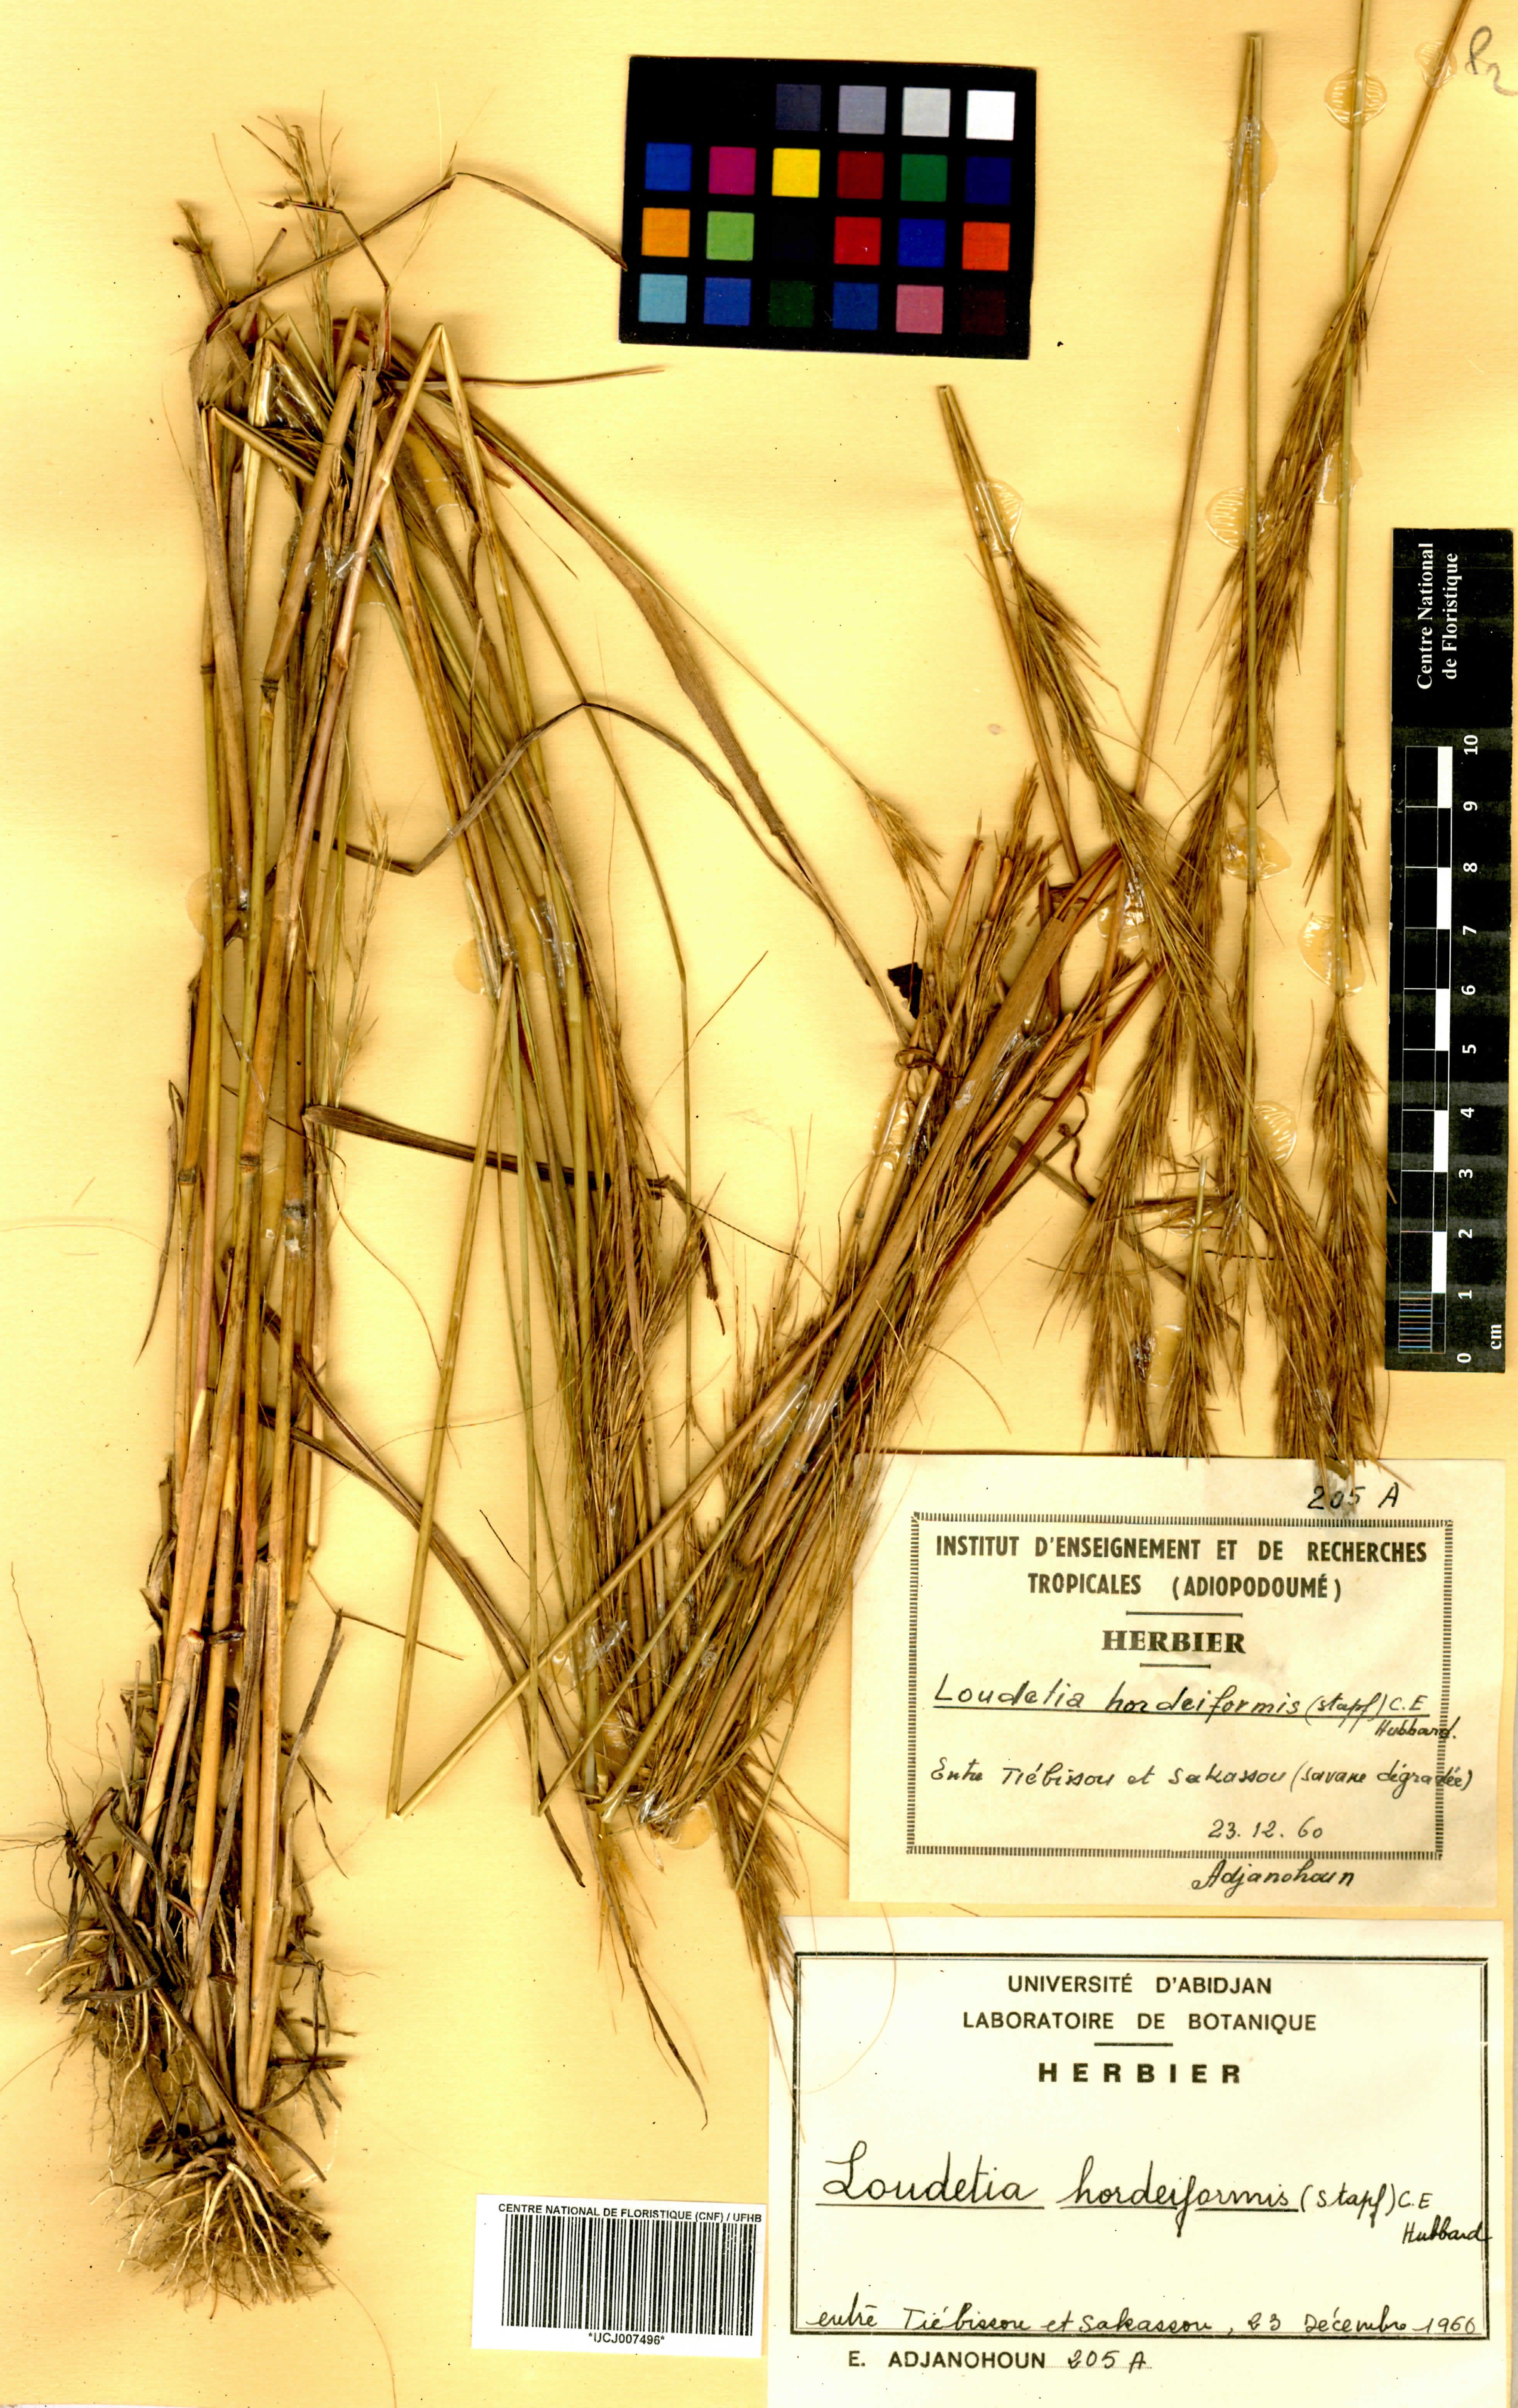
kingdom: Plantae
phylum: Tracheophyta
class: Liliopsida
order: Poales
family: Poaceae
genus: Loudetia
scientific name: Loudetia hordeiformis
